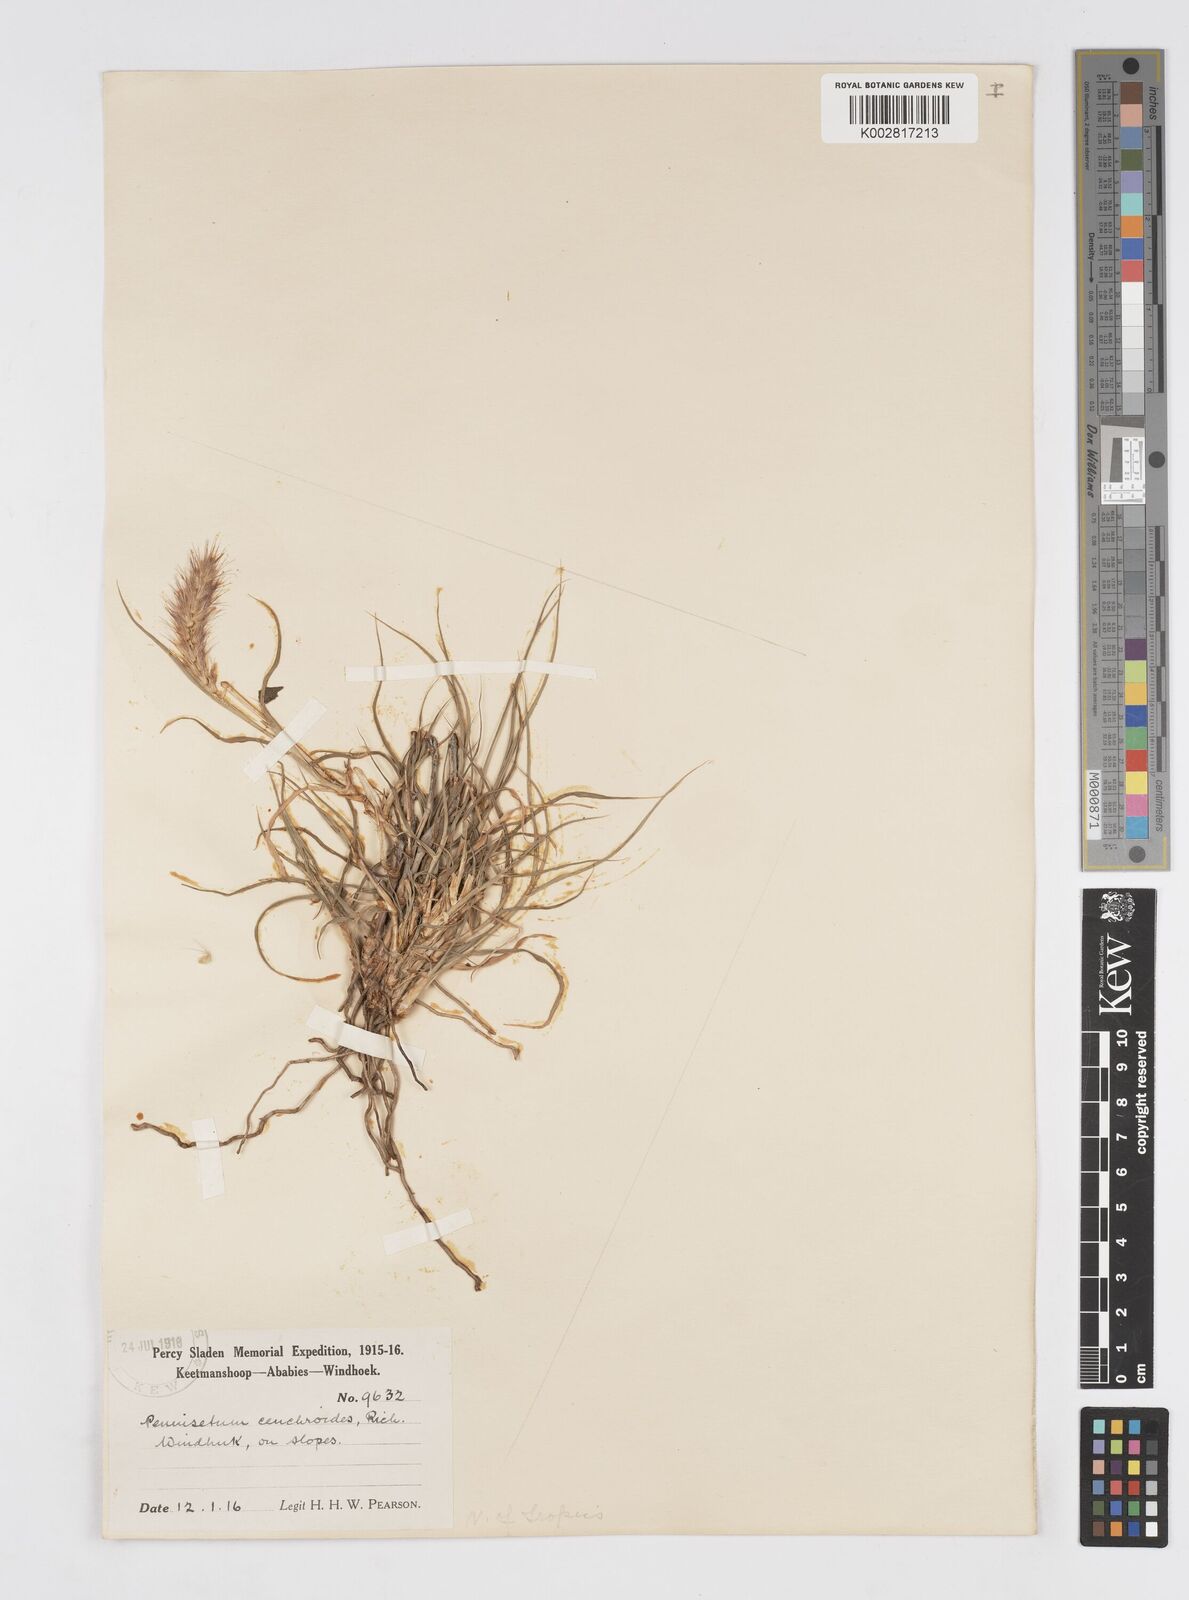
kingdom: Plantae
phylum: Tracheophyta
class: Liliopsida
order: Poales
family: Poaceae
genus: Cenchrus
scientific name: Cenchrus ciliaris
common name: Buffelgrass
